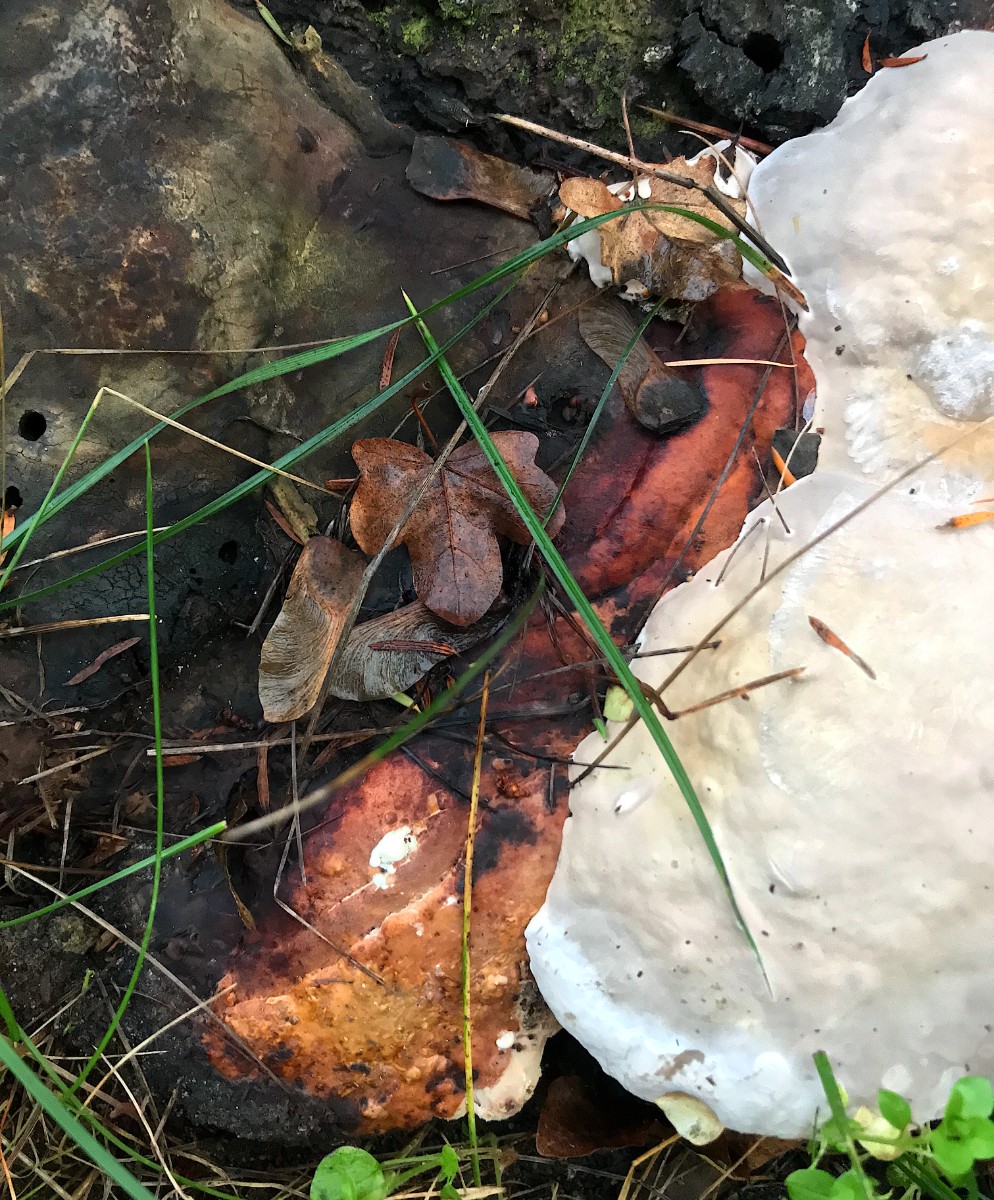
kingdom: Fungi
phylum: Basidiomycota
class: Agaricomycetes
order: Polyporales
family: Fomitopsidaceae
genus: Fomitopsis
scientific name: Fomitopsis pinicola
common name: randbæltet hovporesvamp
